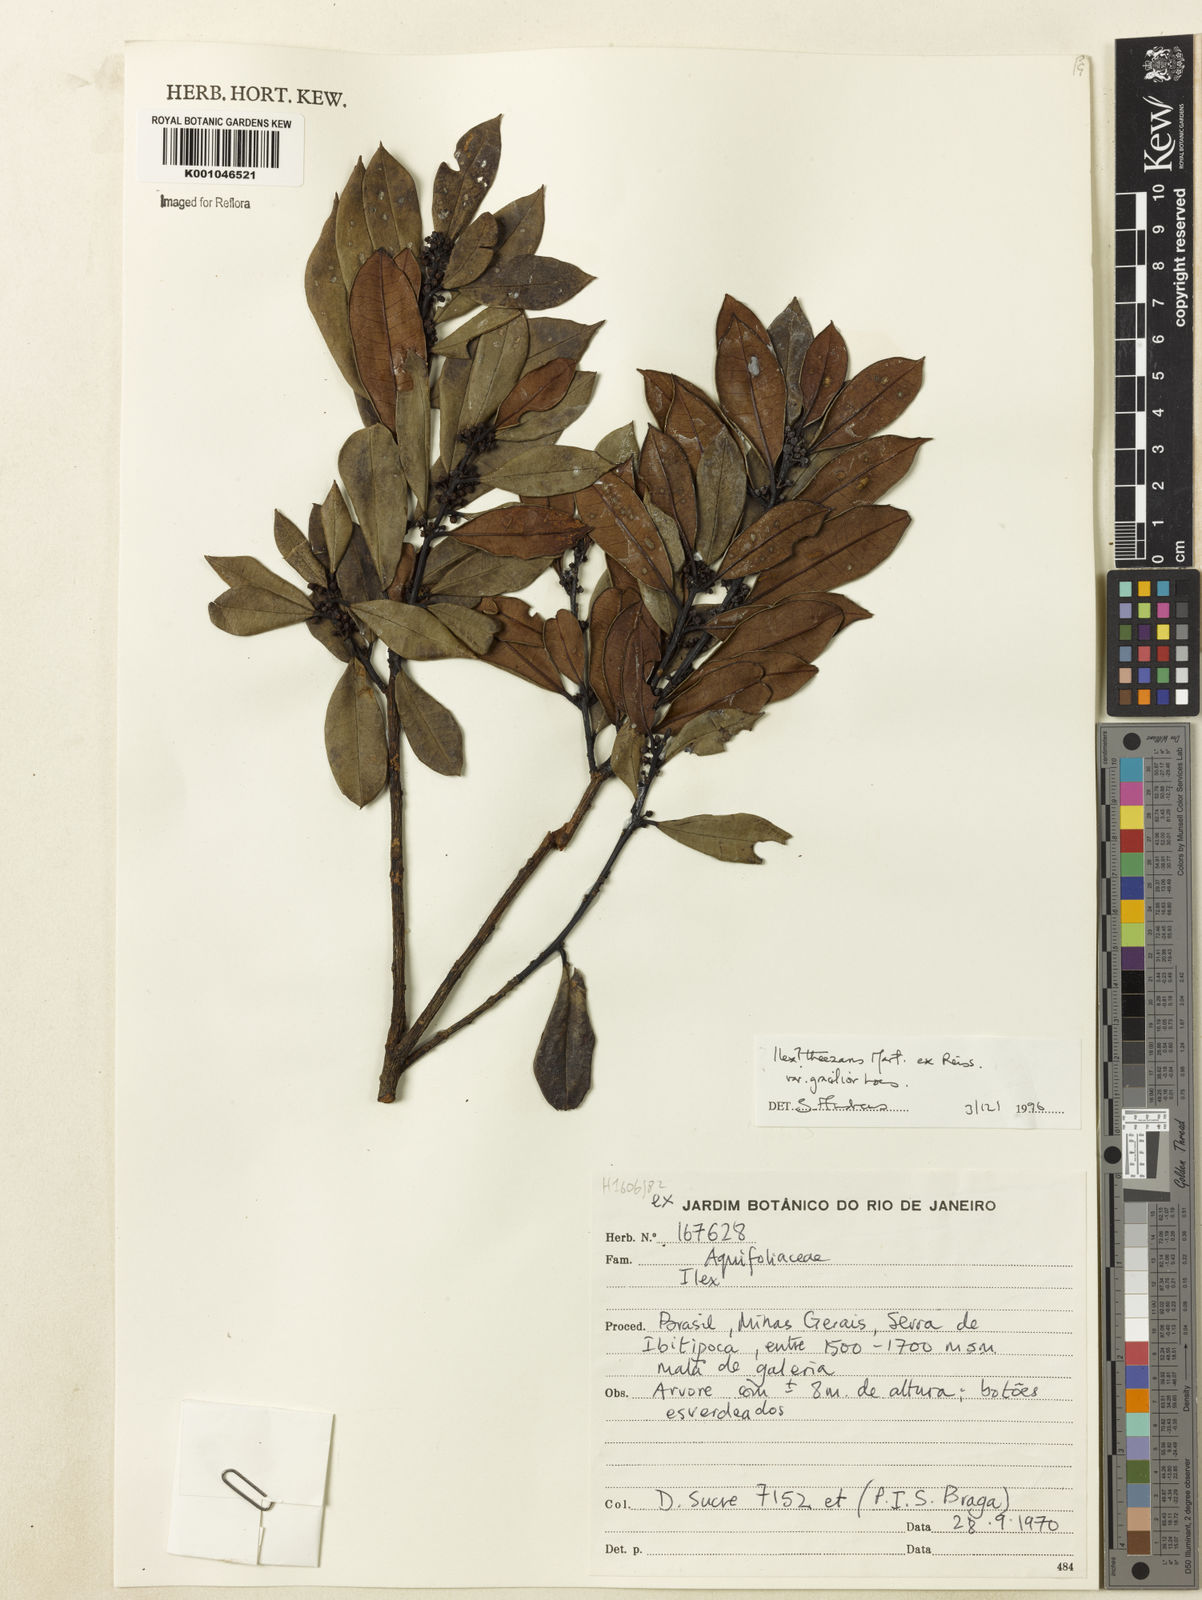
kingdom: Plantae
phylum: Tracheophyta
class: Magnoliopsida
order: Aquifoliales
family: Aquifoliaceae
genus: Ilex
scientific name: Ilex gracilior
